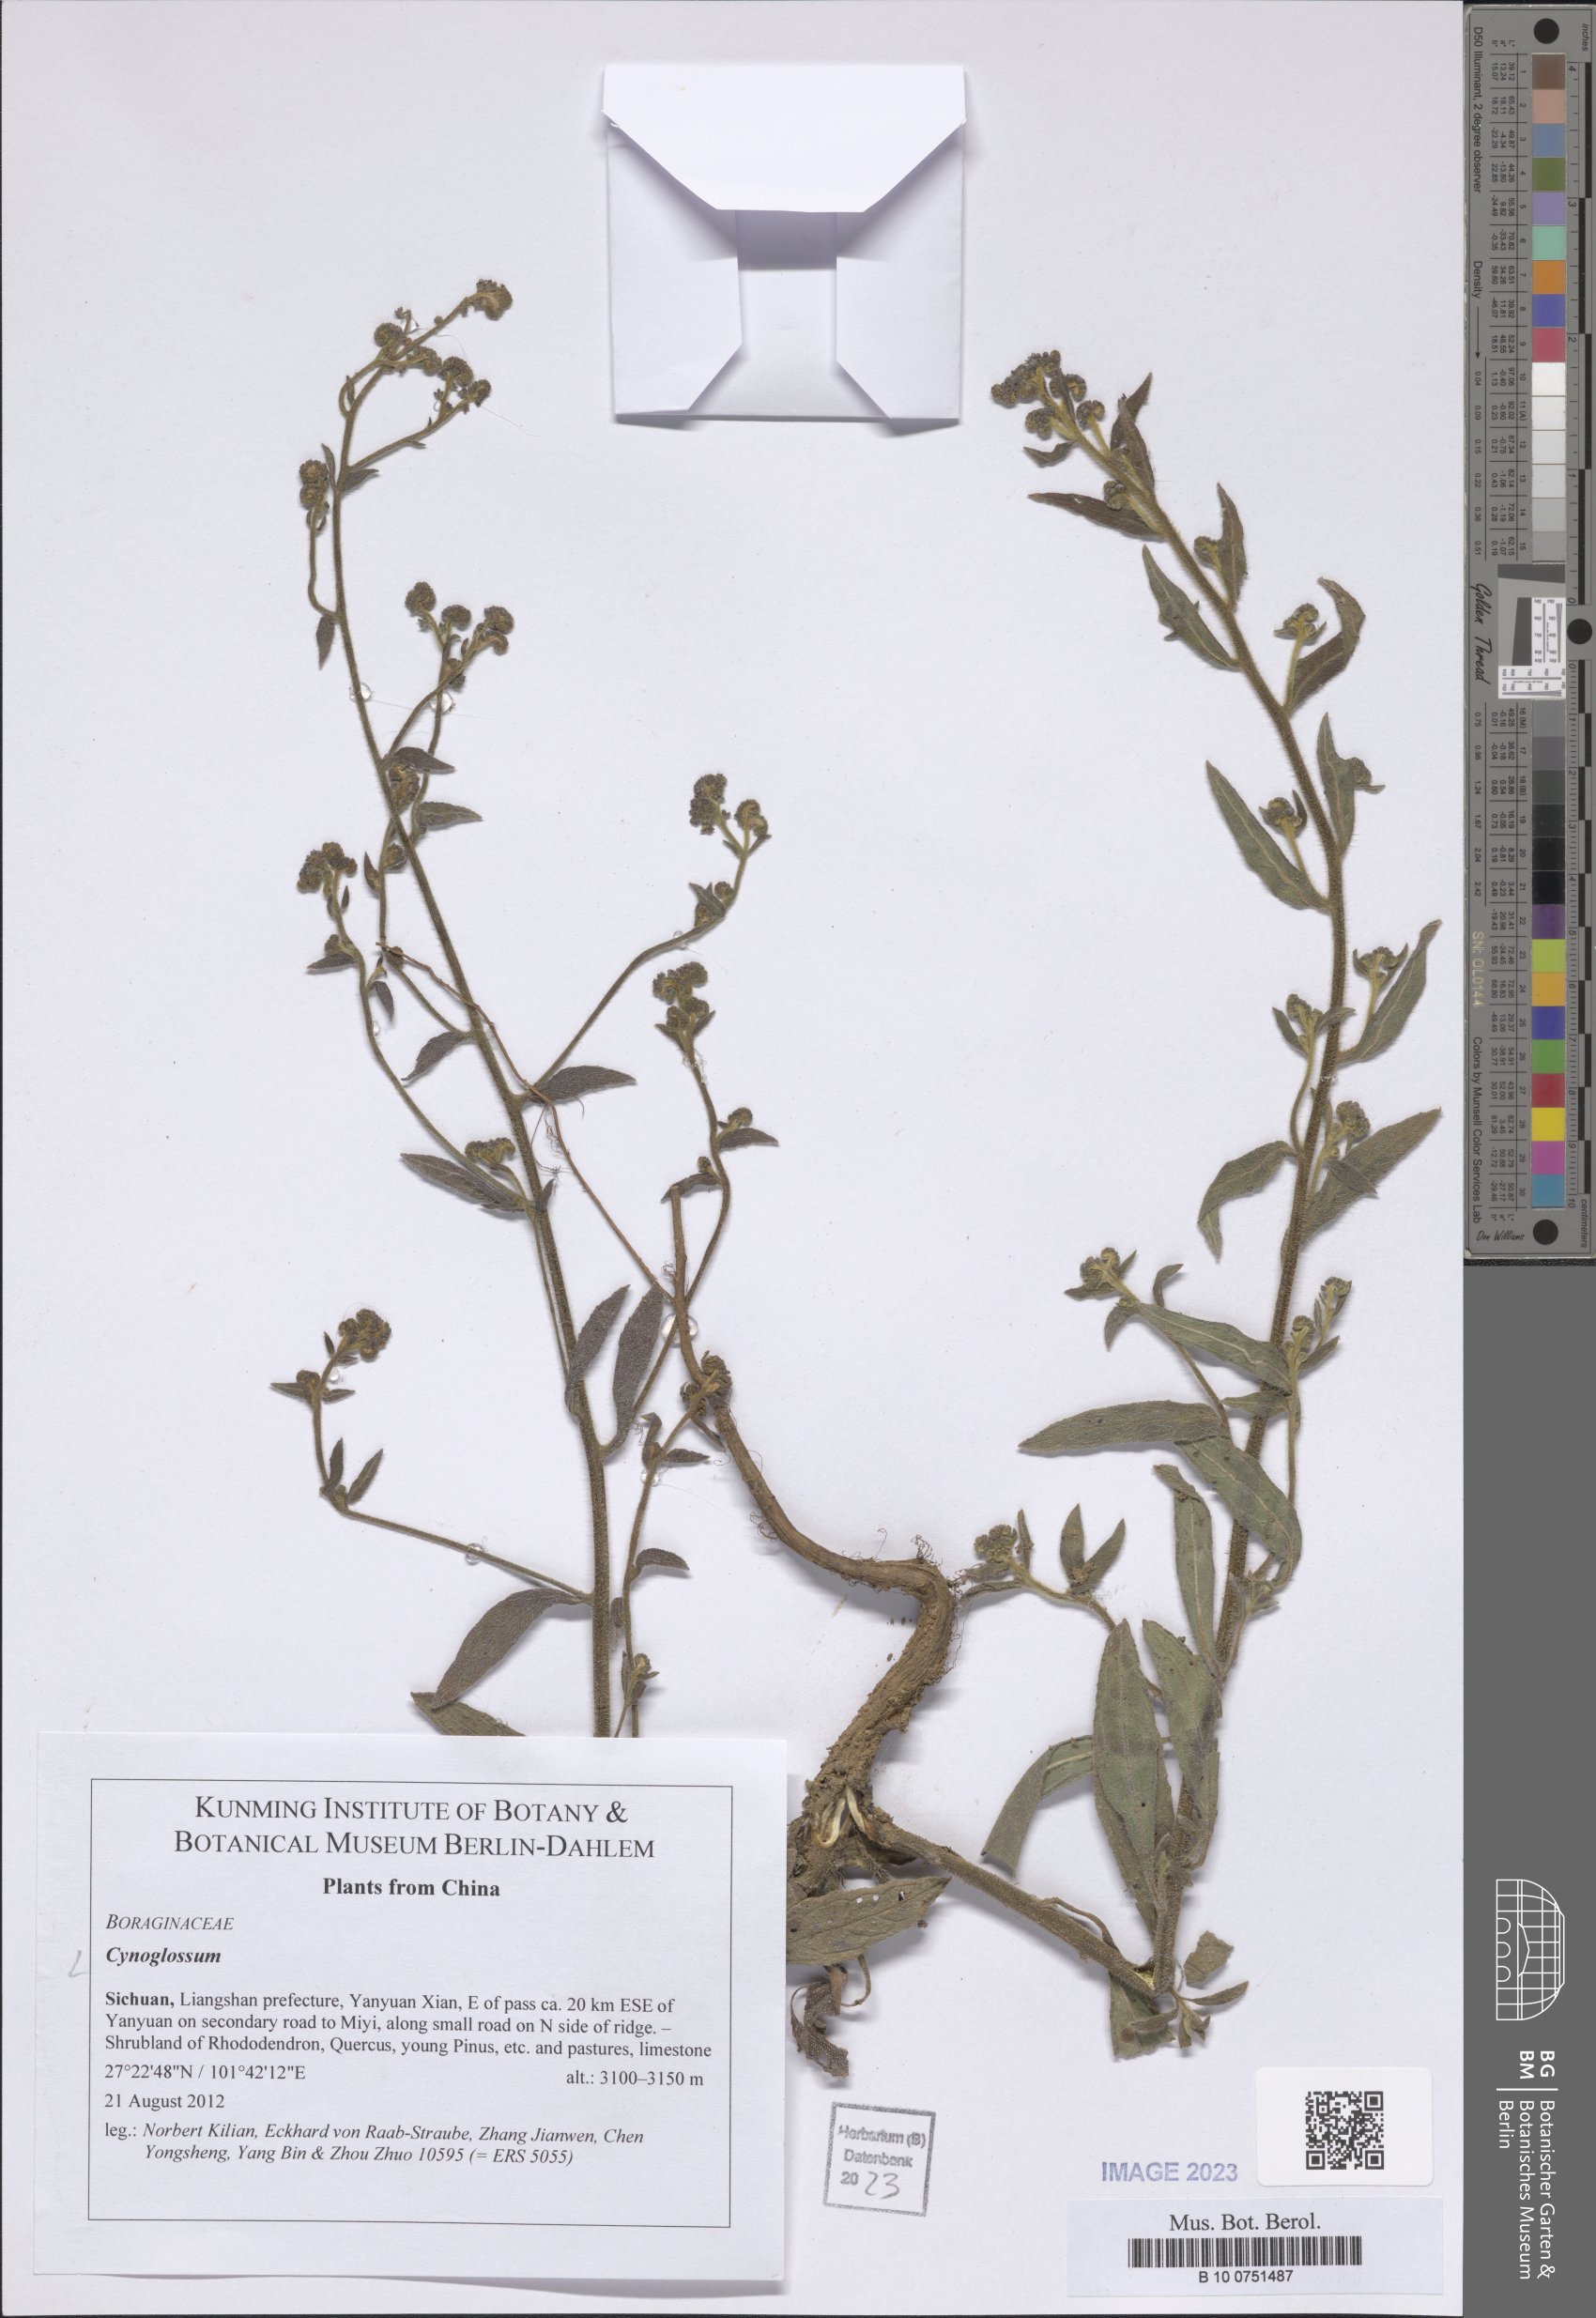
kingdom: Plantae
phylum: Tracheophyta
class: Magnoliopsida
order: Boraginales
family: Boraginaceae
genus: Cynoglossum
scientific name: Cynoglossum
